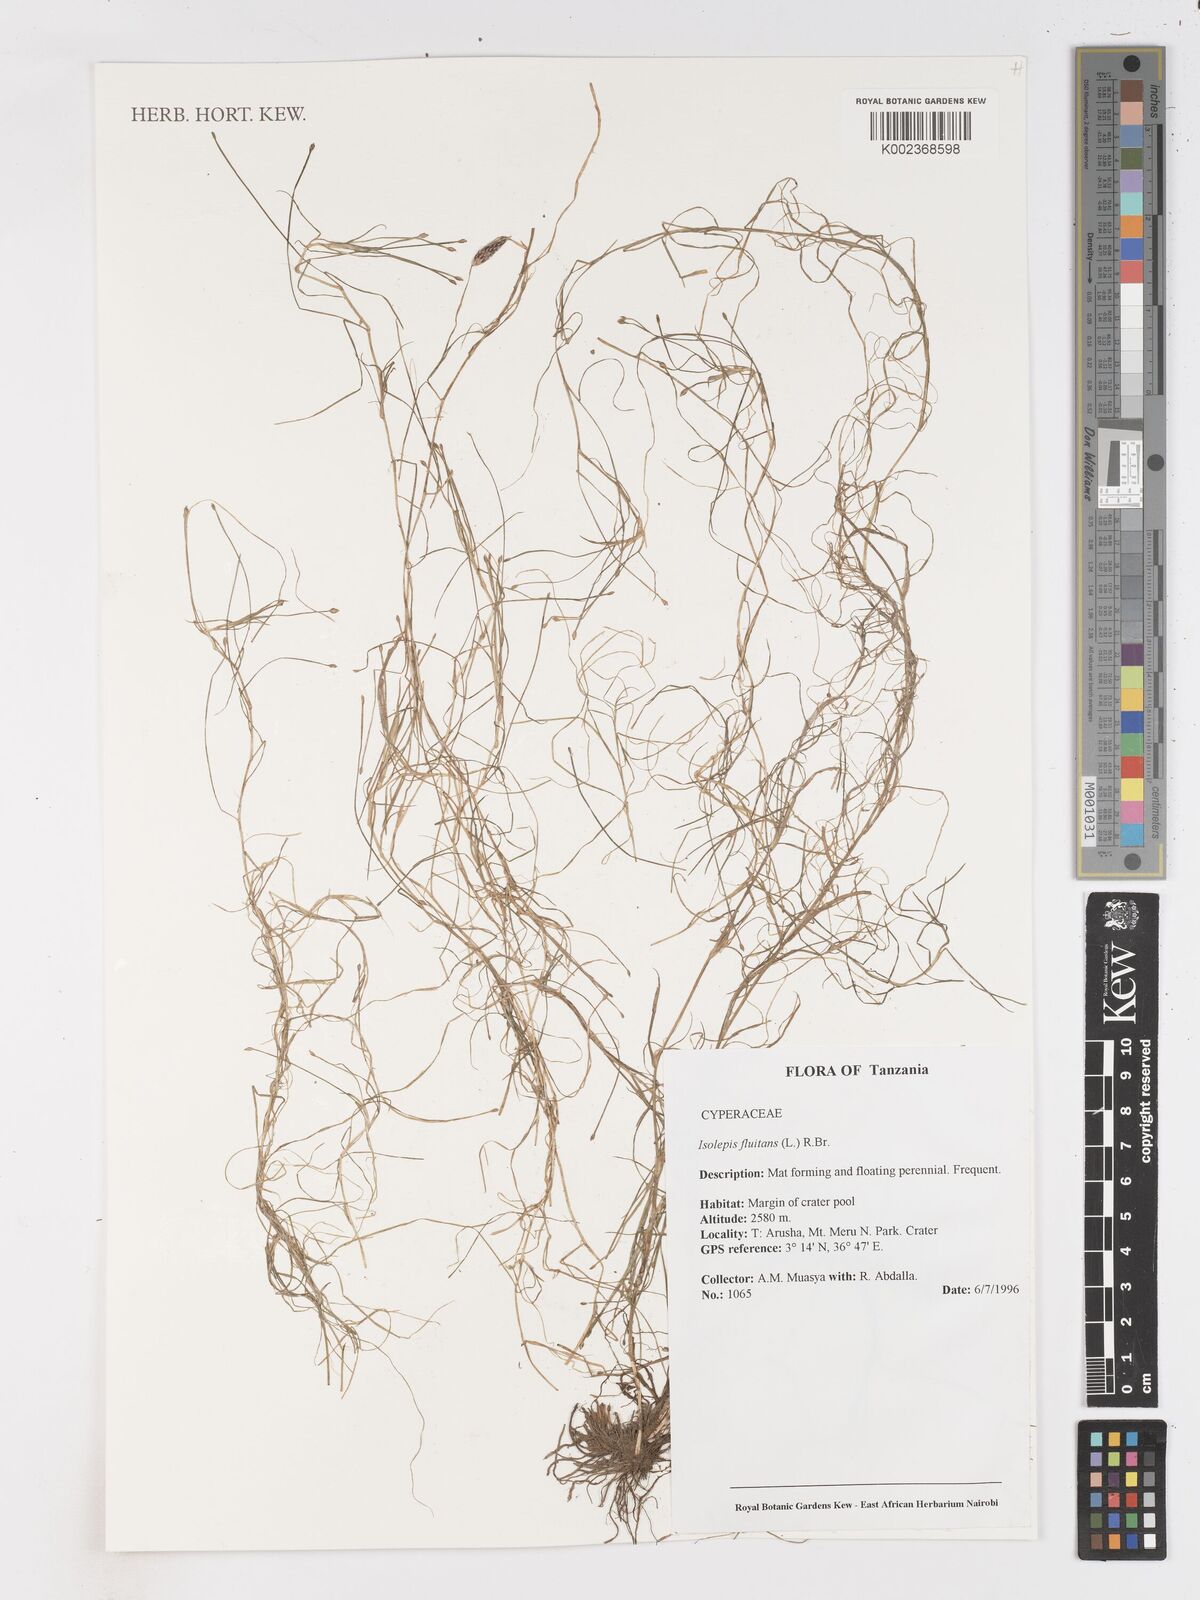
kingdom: Plantae
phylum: Tracheophyta
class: Liliopsida
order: Poales
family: Cyperaceae
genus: Isolepis
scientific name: Isolepis fluitans
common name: Floating club-rush
